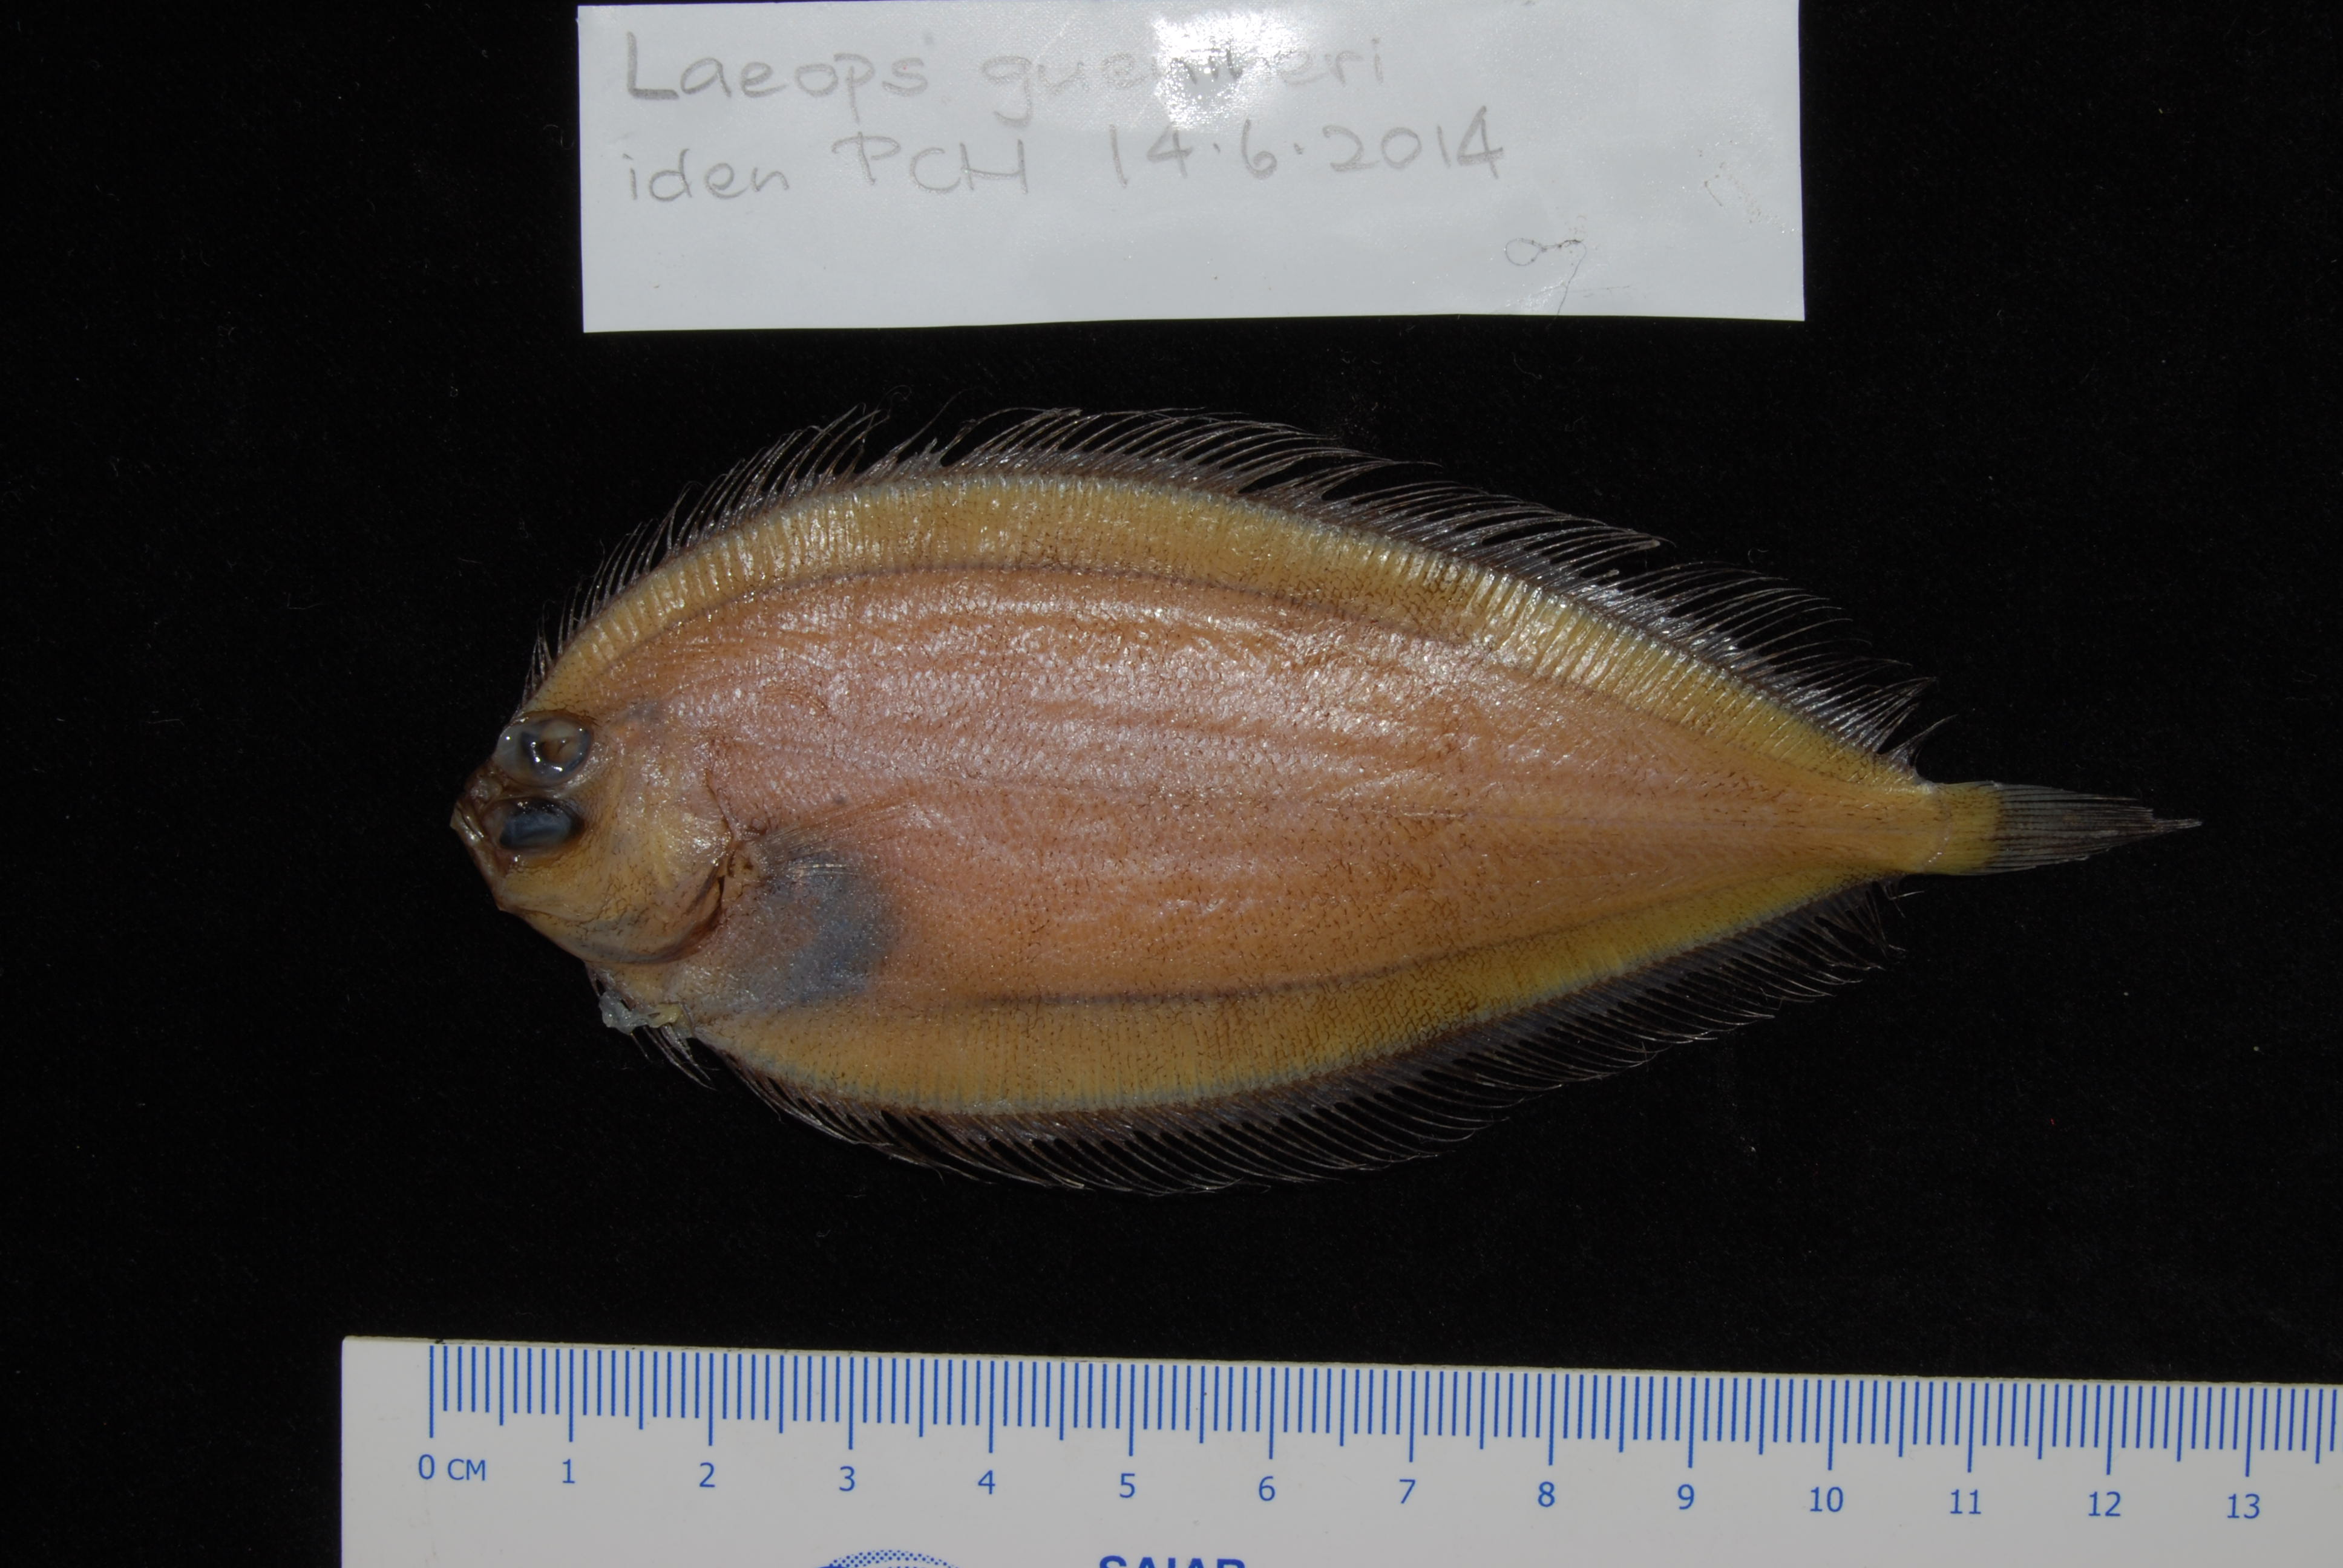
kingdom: Animalia
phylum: Chordata
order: Pleuronectiformes
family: Bothidae
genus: Laeops
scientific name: Laeops guentheri
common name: Günther's flounder
